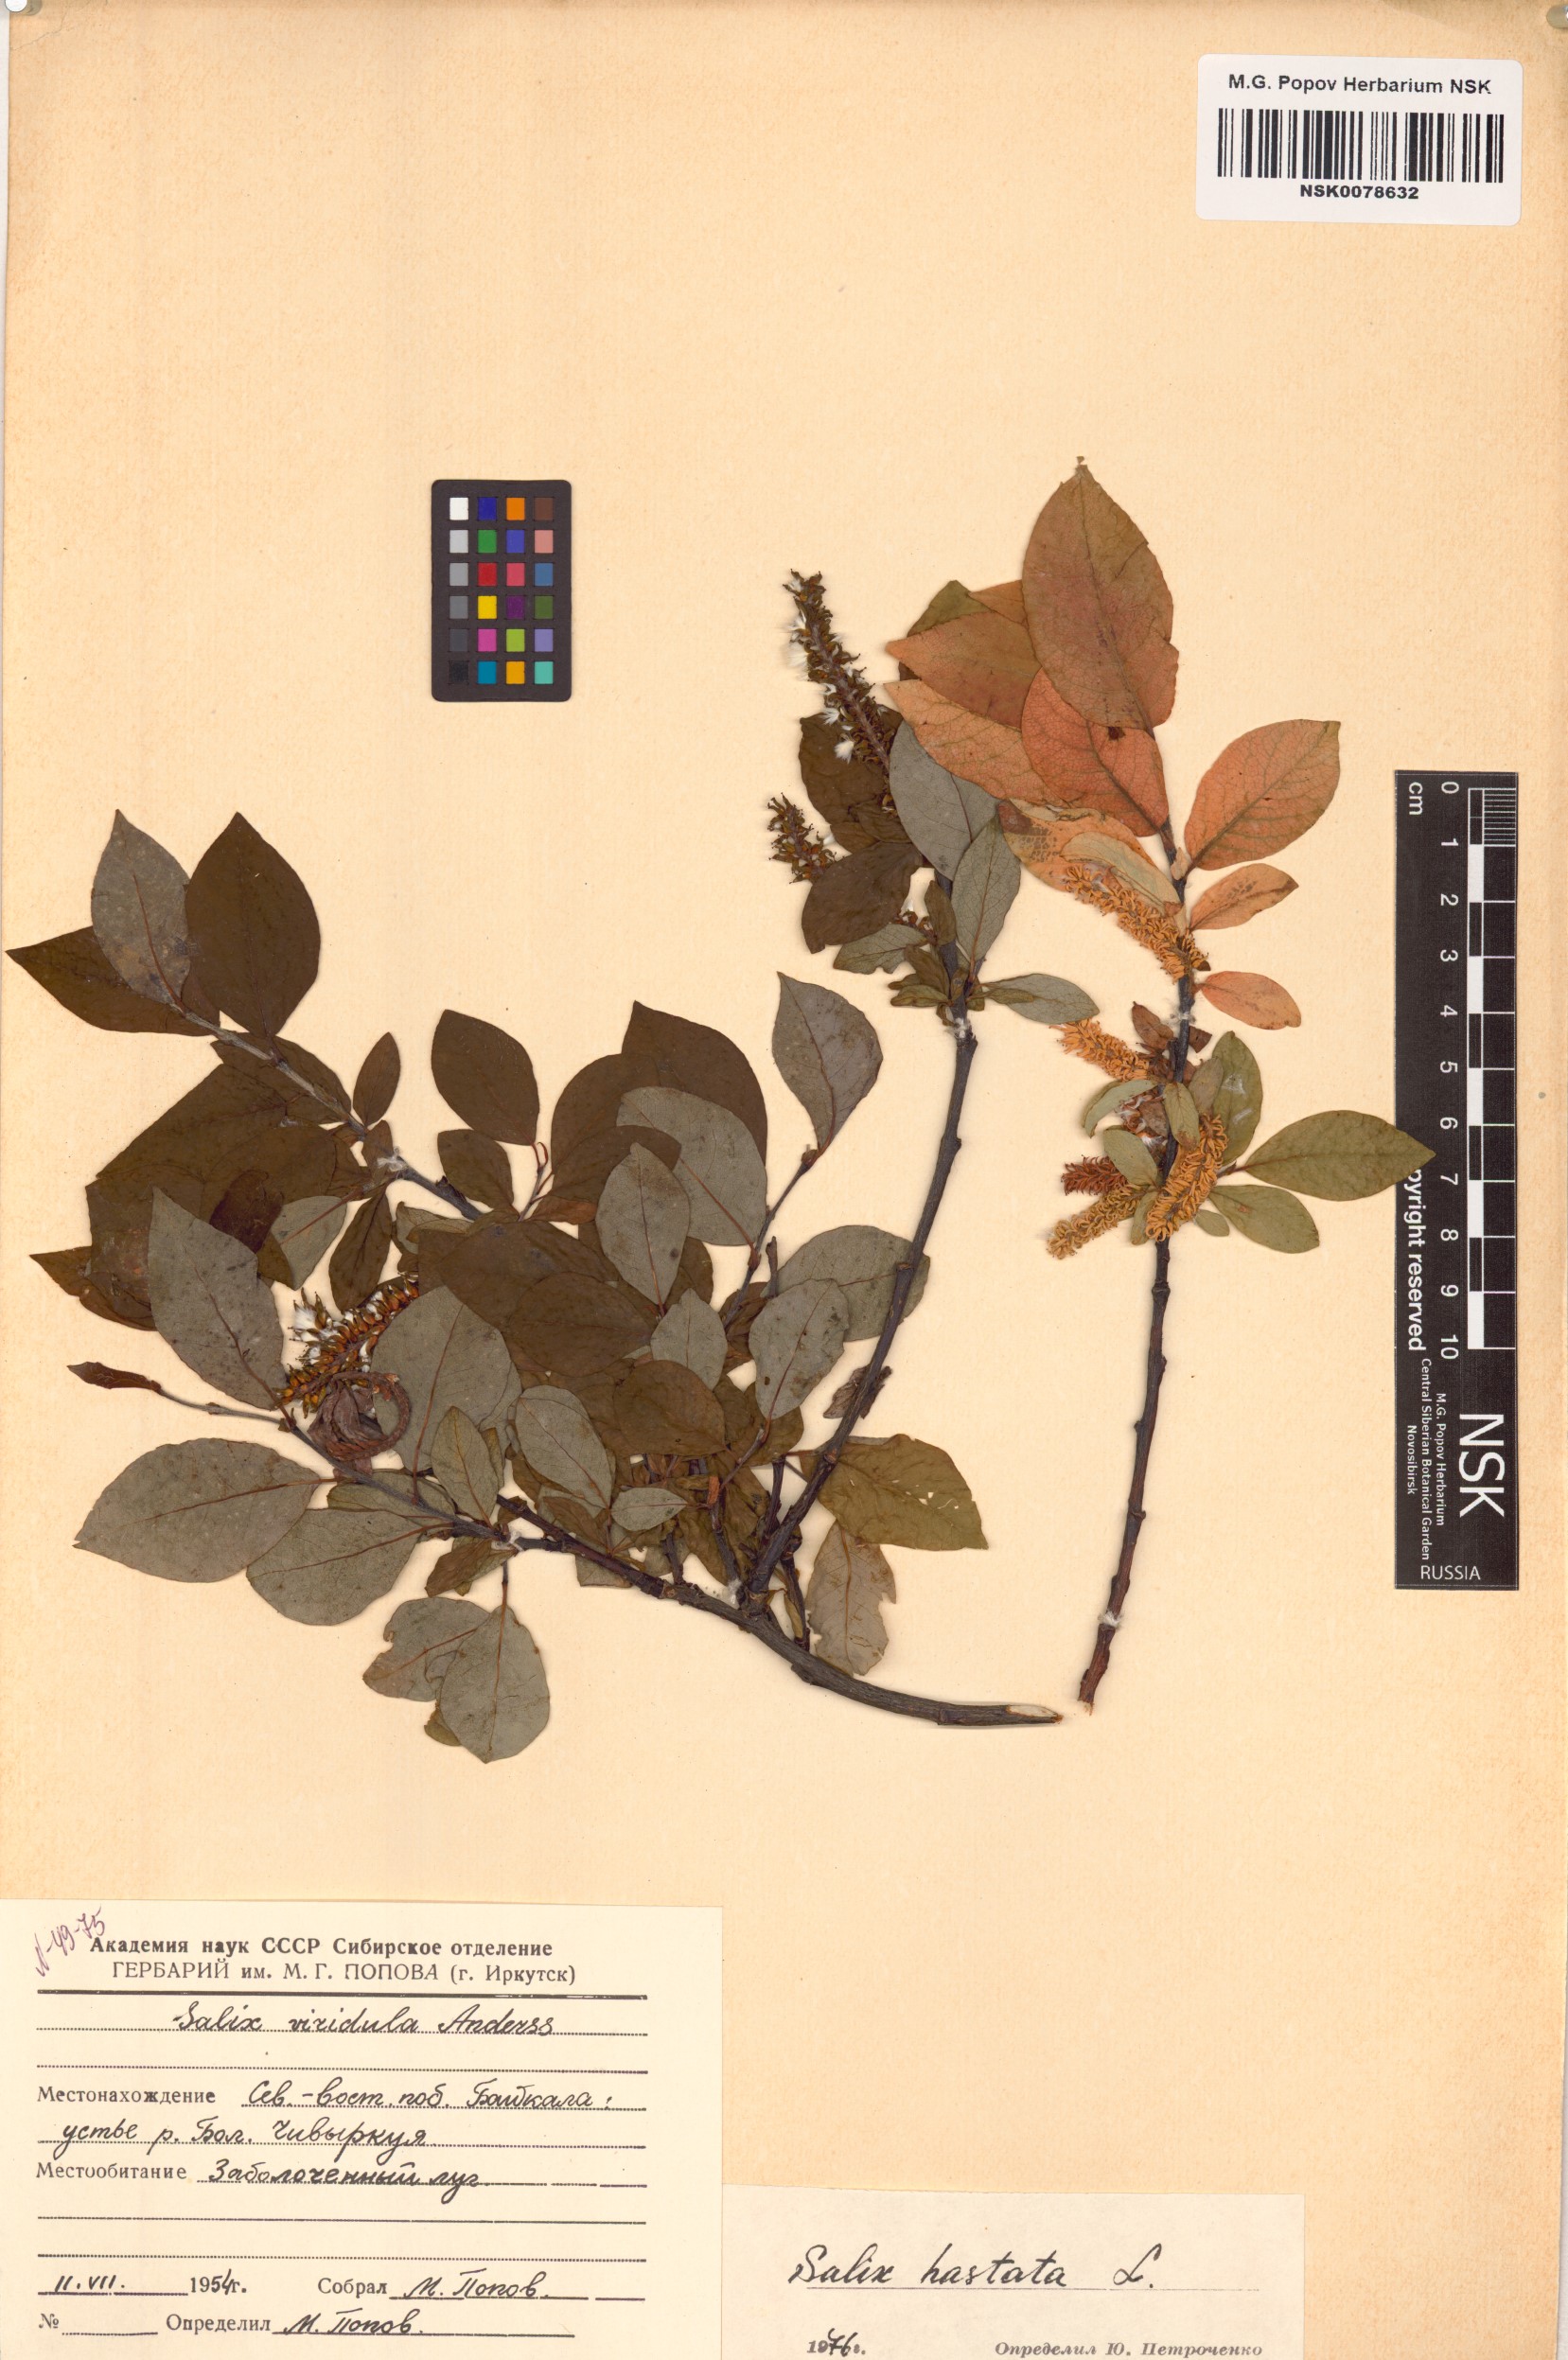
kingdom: Plantae
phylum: Tracheophyta
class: Magnoliopsida
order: Malpighiales
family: Salicaceae
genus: Salix
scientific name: Salix hastata
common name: Halberd willow
